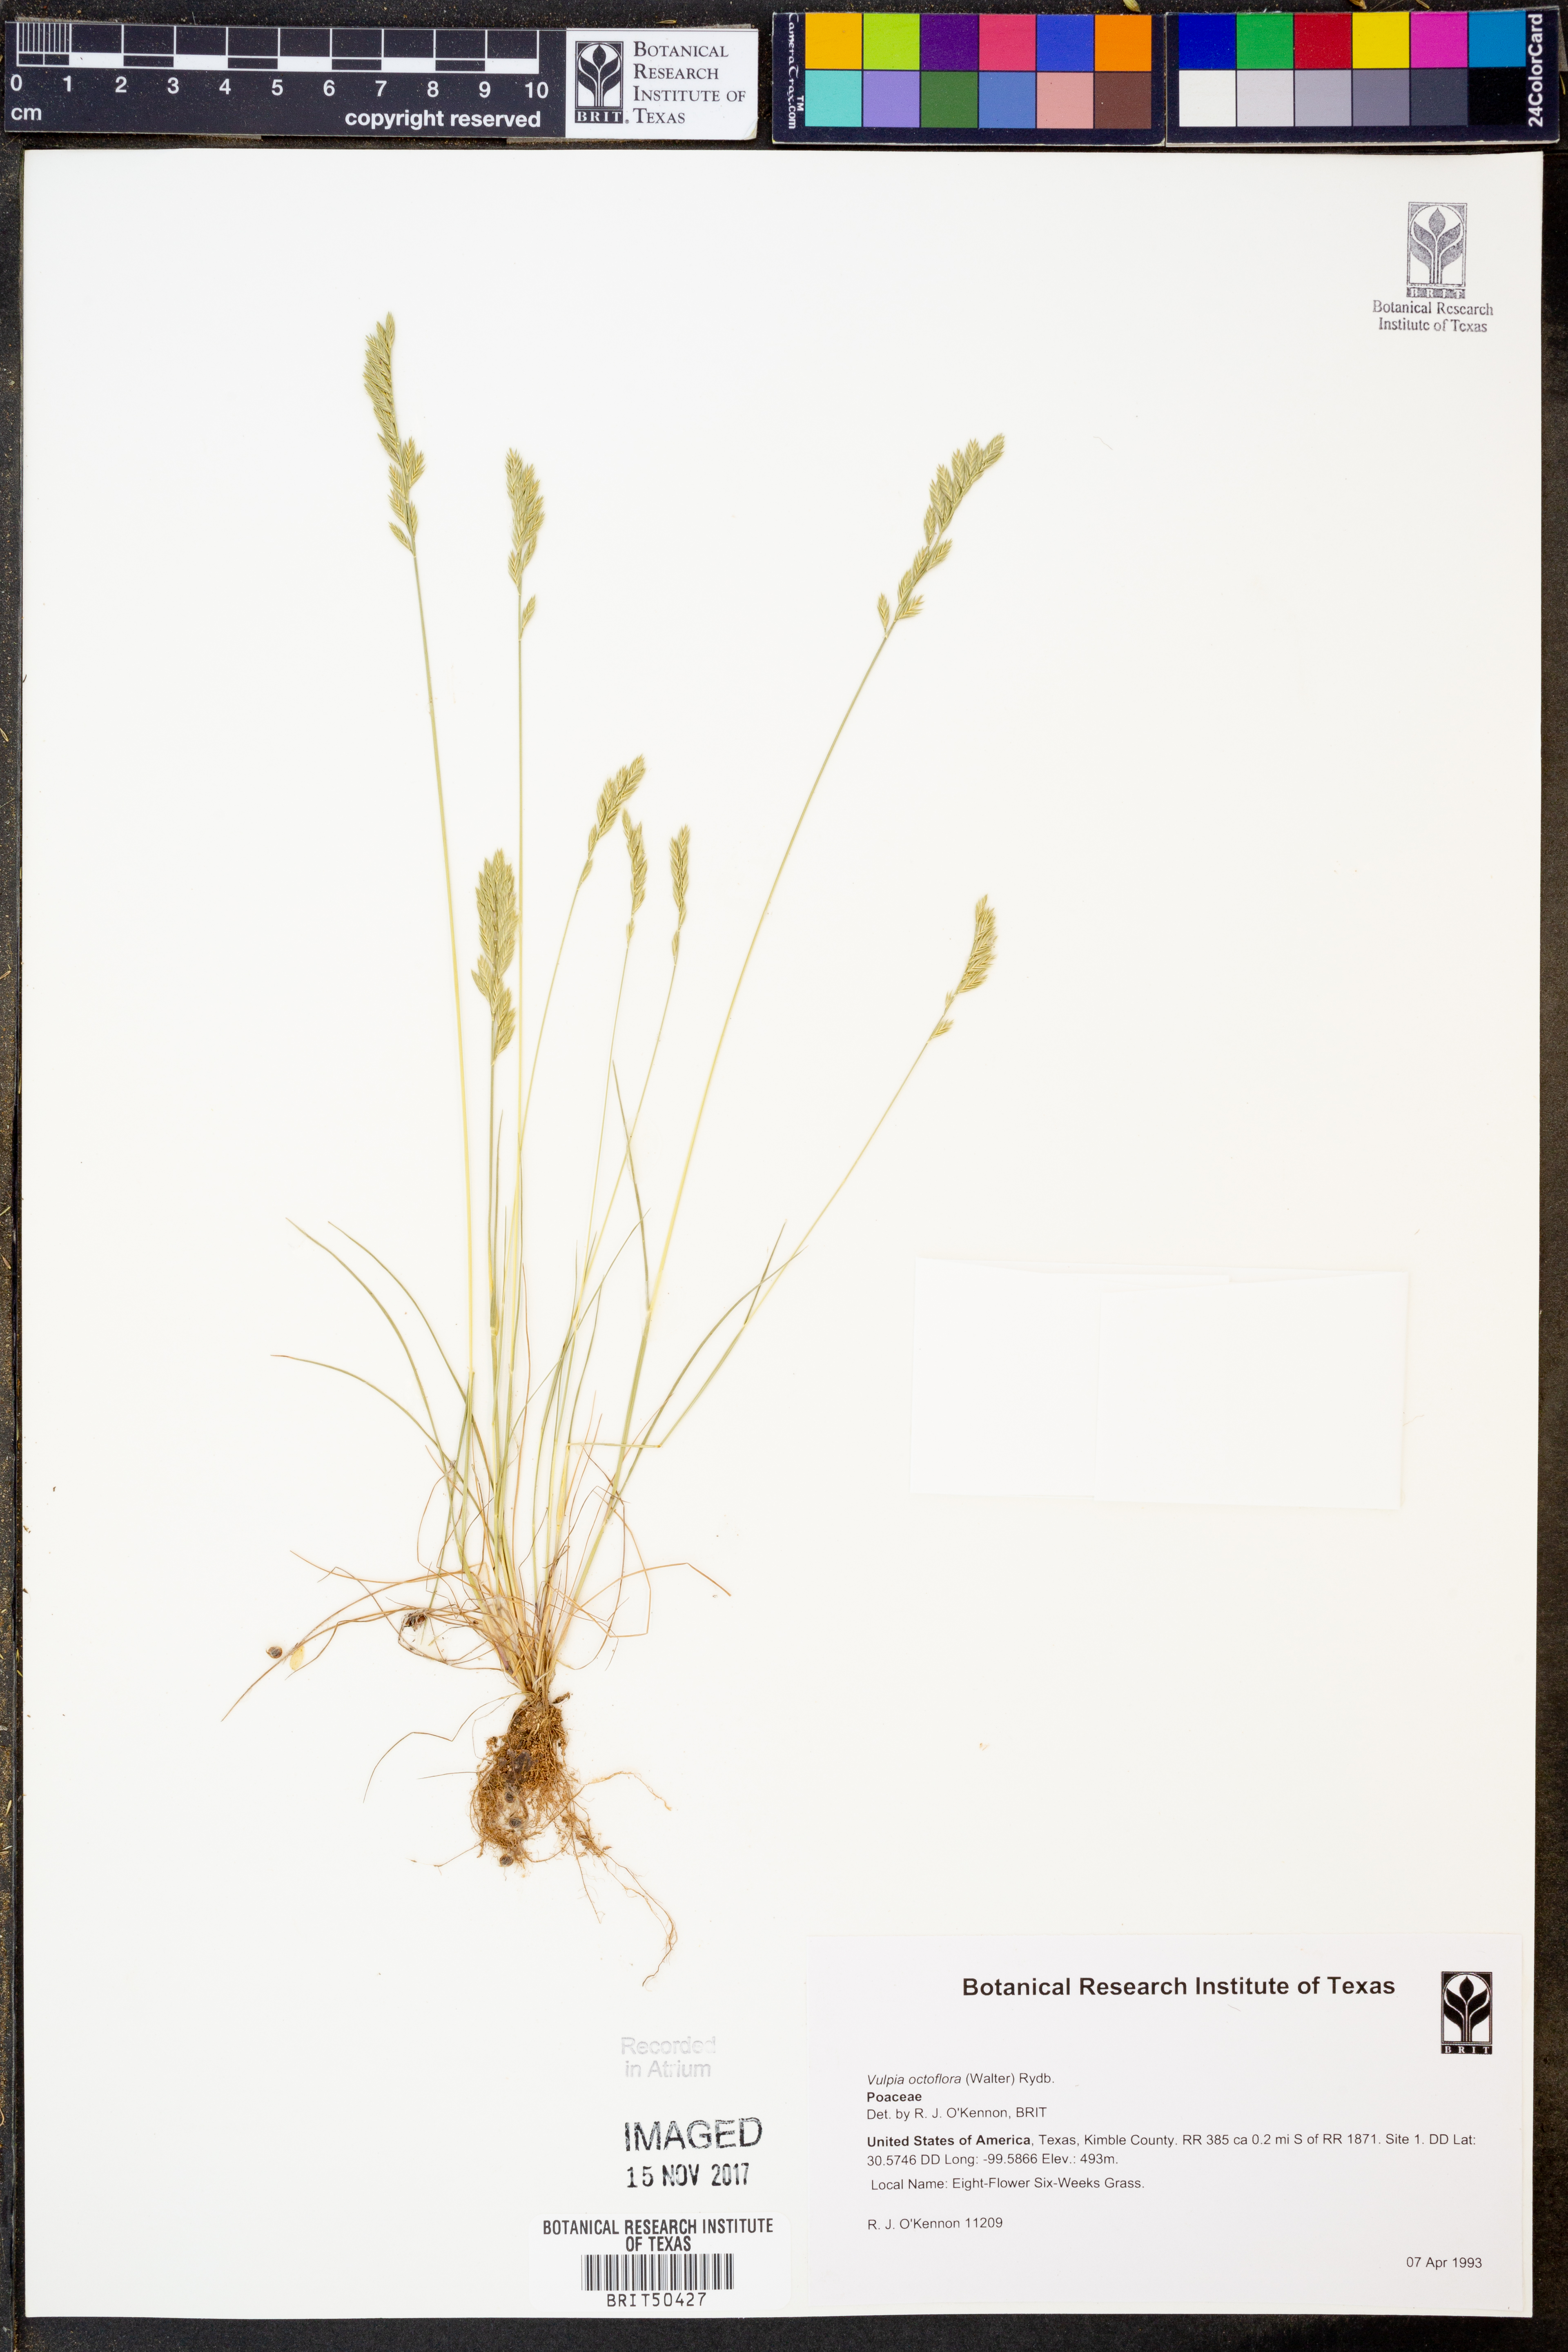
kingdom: Plantae
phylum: Tracheophyta
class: Liliopsida
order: Poales
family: Poaceae
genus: Festuca
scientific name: Festuca octoflora
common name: Sixweeks grass
